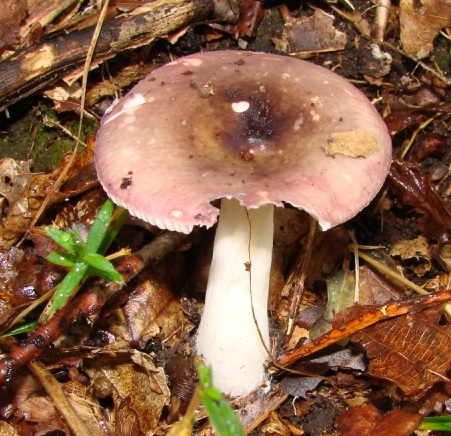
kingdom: Fungi
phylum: Basidiomycota
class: Agaricomycetes
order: Russulales
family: Russulaceae
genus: Russula
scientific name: Russula atropurpurea
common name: purpurbroget skørhat
